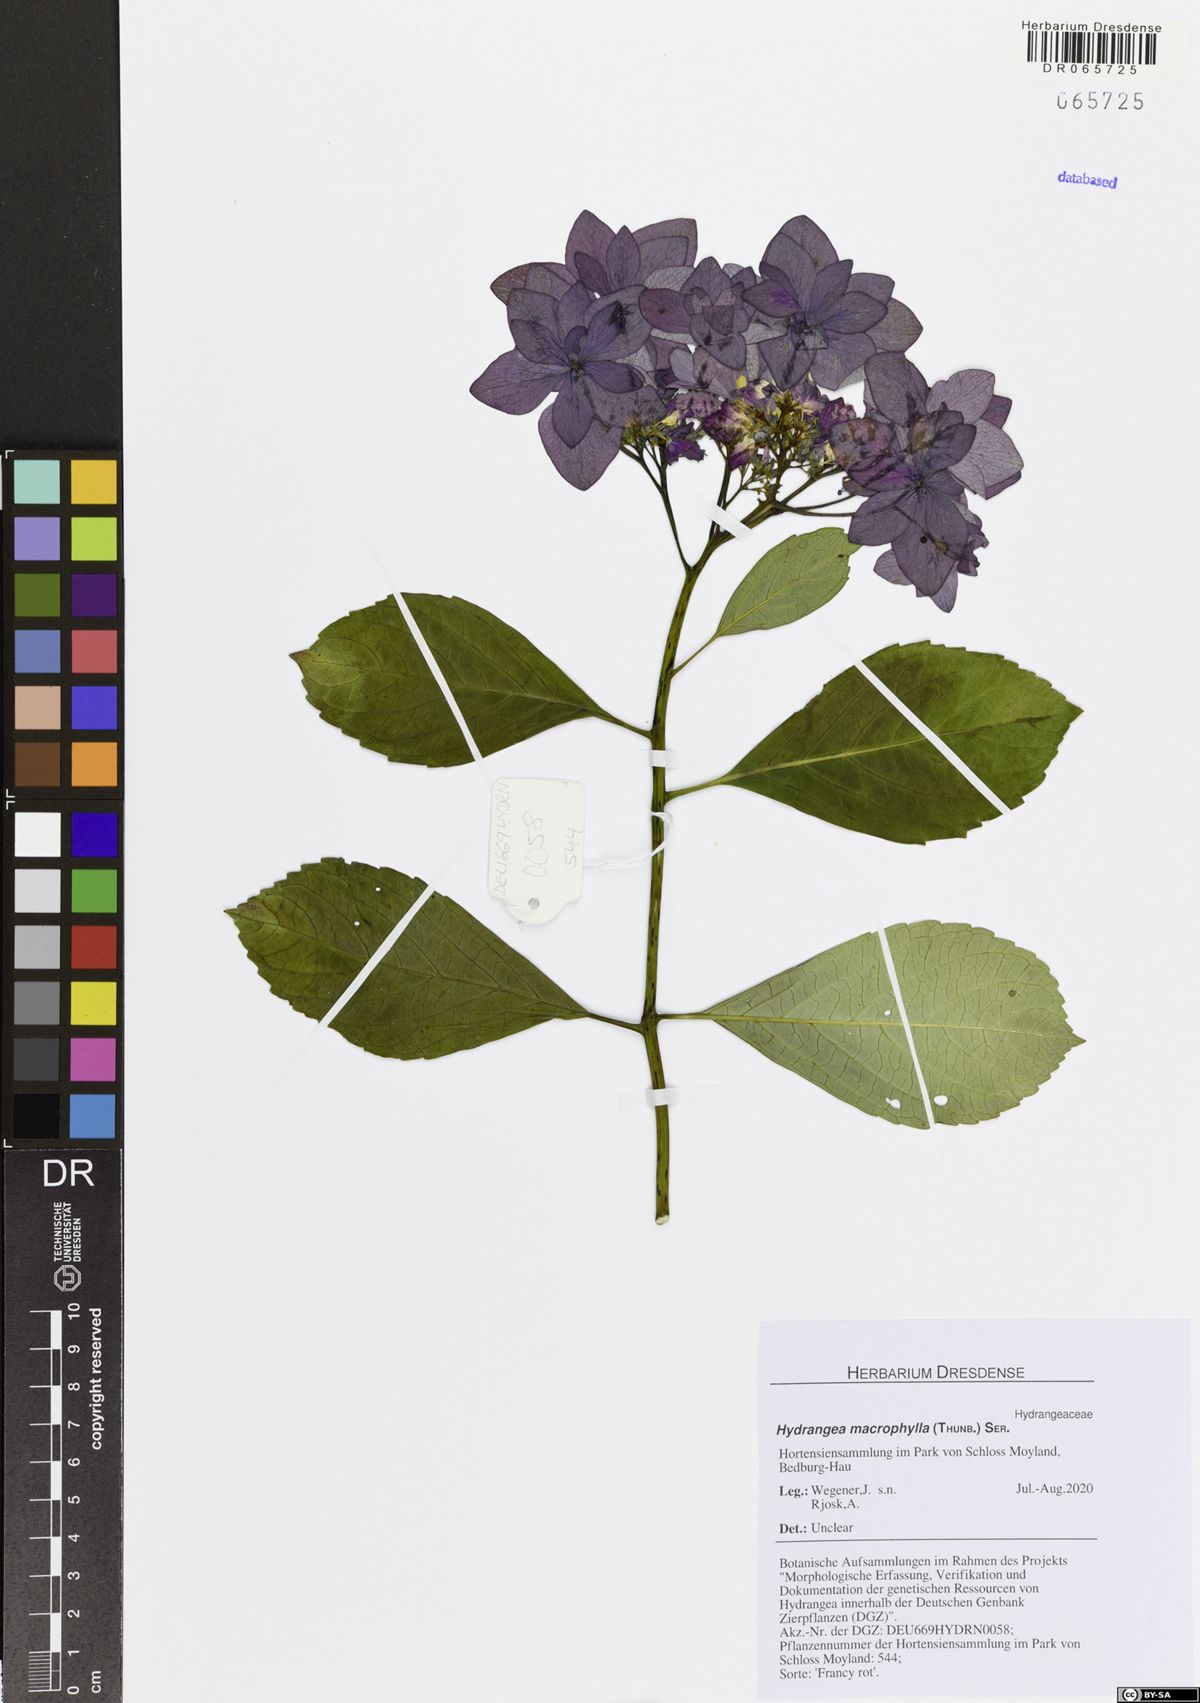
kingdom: Plantae
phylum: Tracheophyta
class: Magnoliopsida
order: Cornales
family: Hydrangeaceae
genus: Hydrangea
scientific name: Hydrangea macrophylla
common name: Hydrangea
